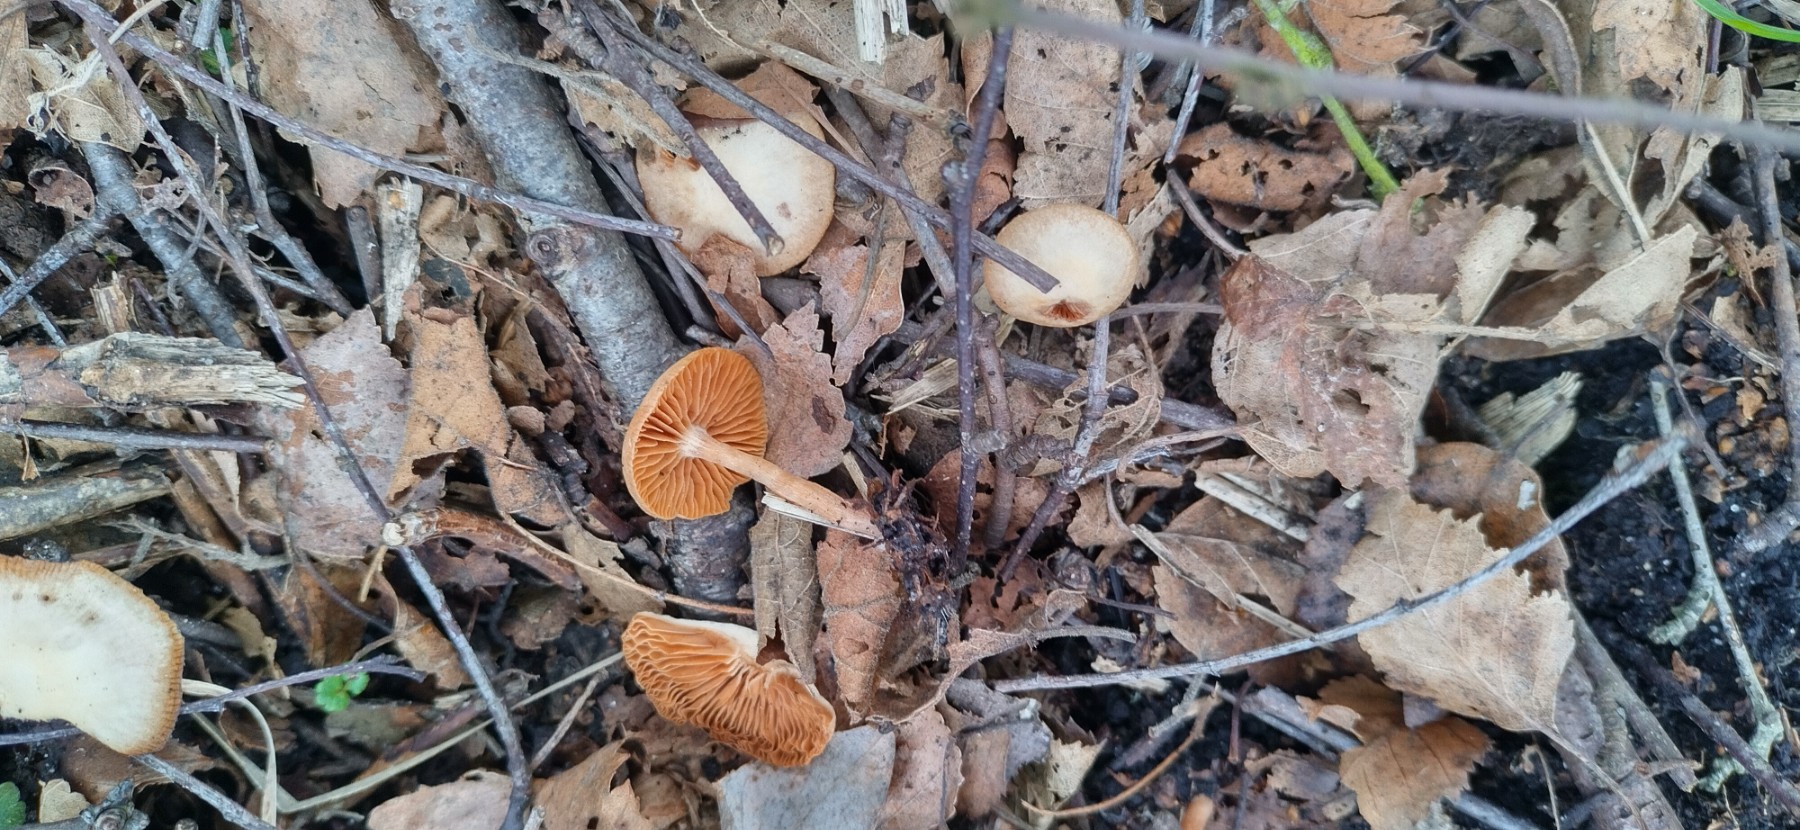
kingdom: Fungi
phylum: Basidiomycota
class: Agaricomycetes
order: Agaricales
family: Tubariaceae
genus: Tubaria
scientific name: Tubaria furfuracea
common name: kliddet fnughat
